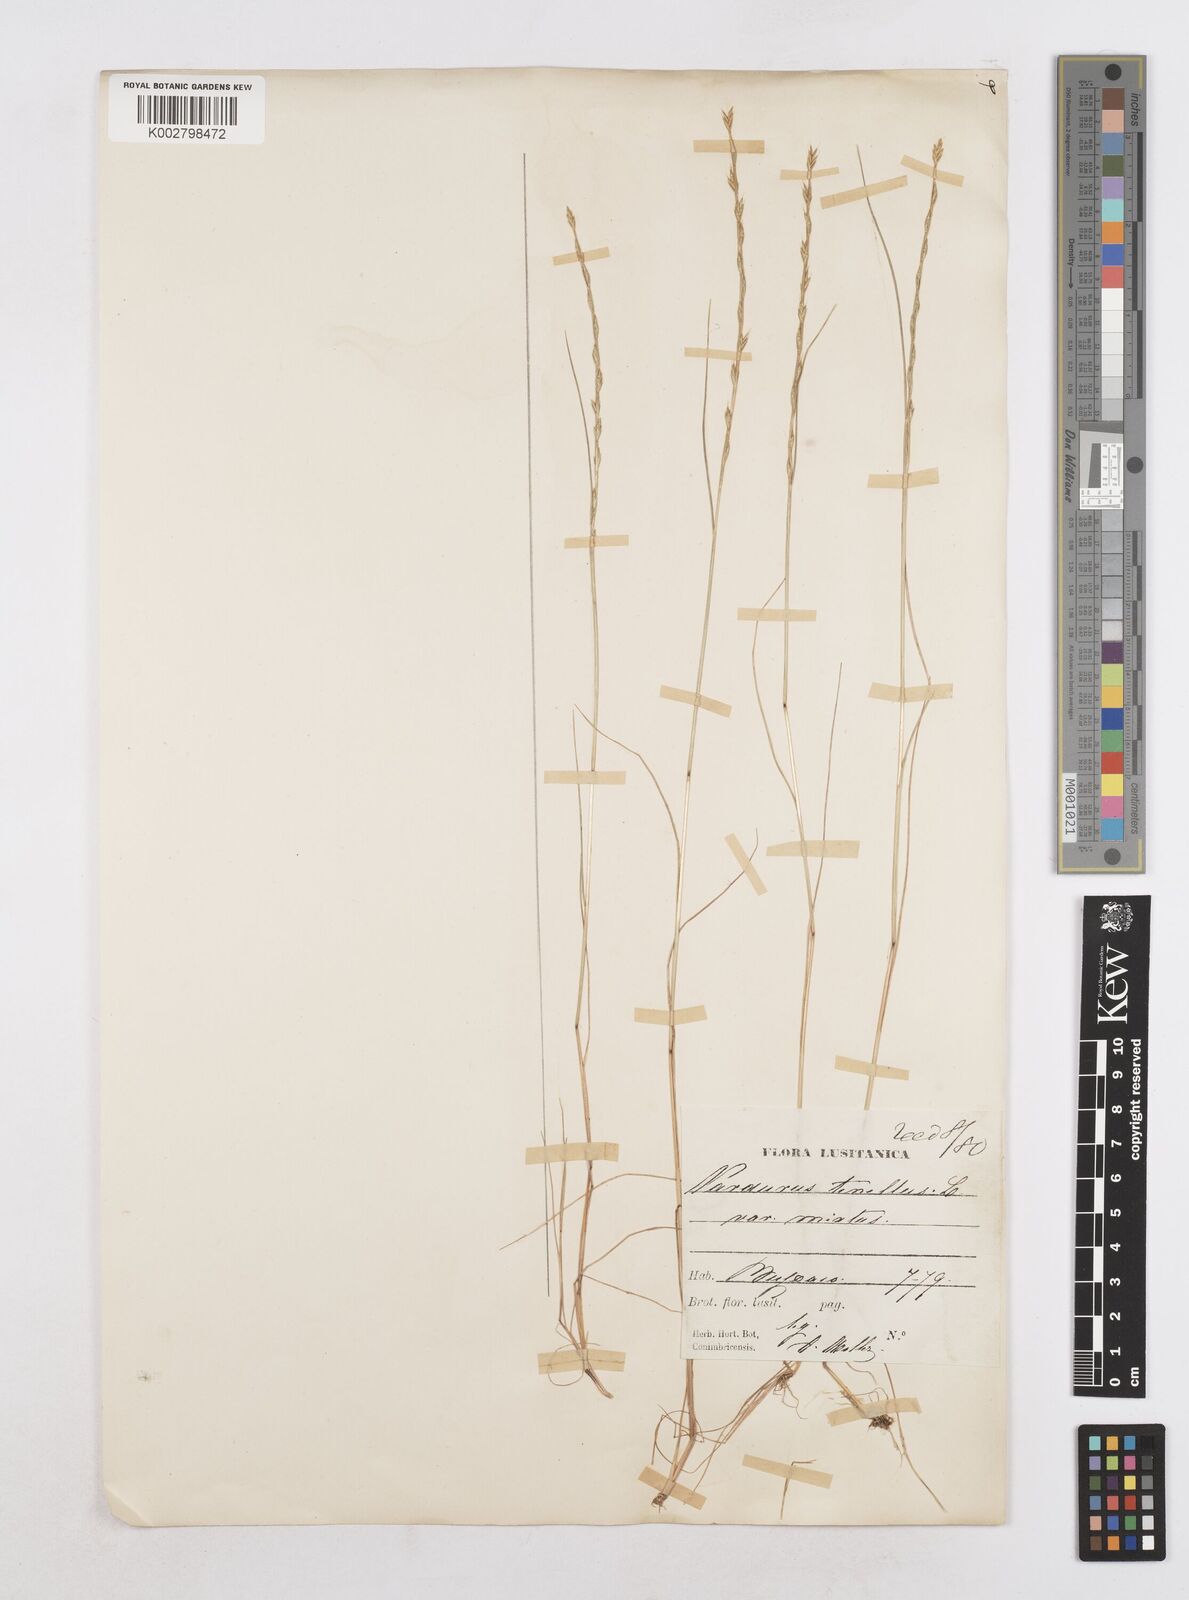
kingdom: Plantae
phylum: Tracheophyta
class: Liliopsida
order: Poales
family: Poaceae
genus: Festuca
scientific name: Festuca lachenalii
